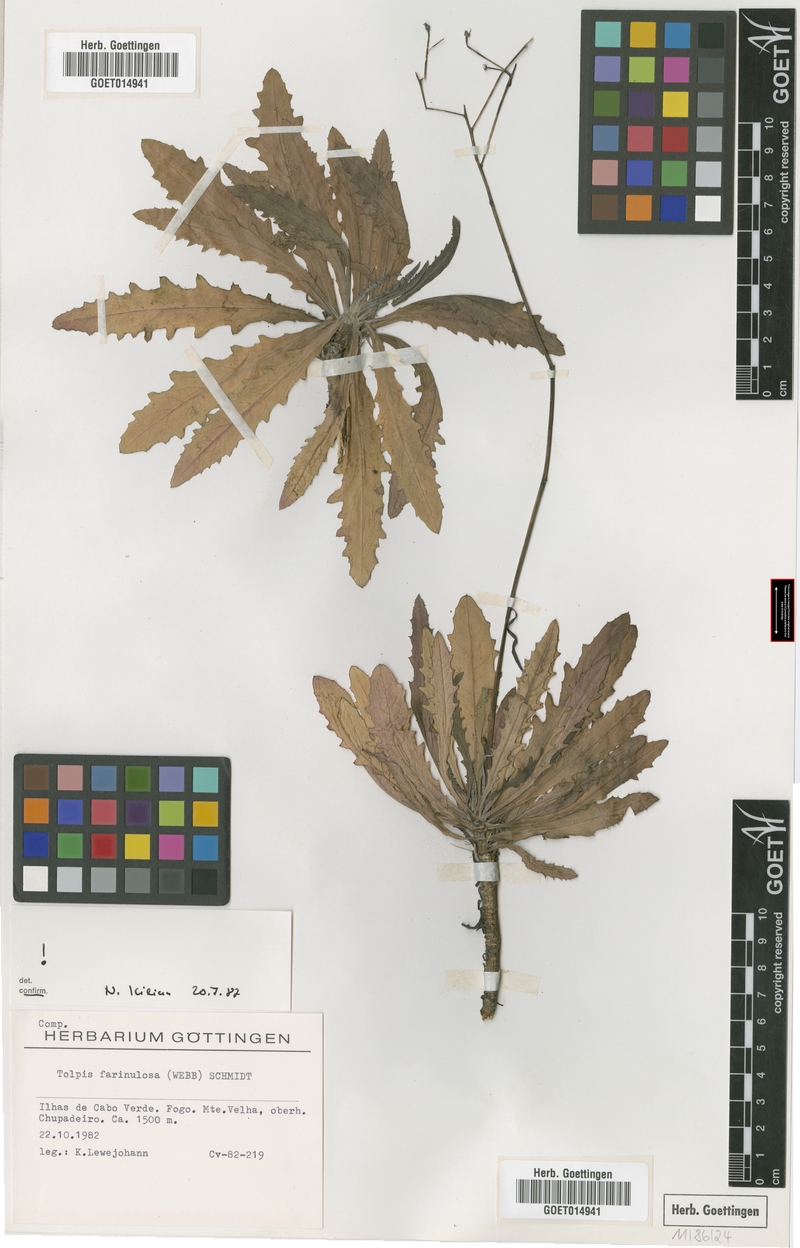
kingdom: Plantae
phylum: Tracheophyta
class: Magnoliopsida
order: Asterales
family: Asteraceae
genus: Tolpis
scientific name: Tolpis farinulosa
